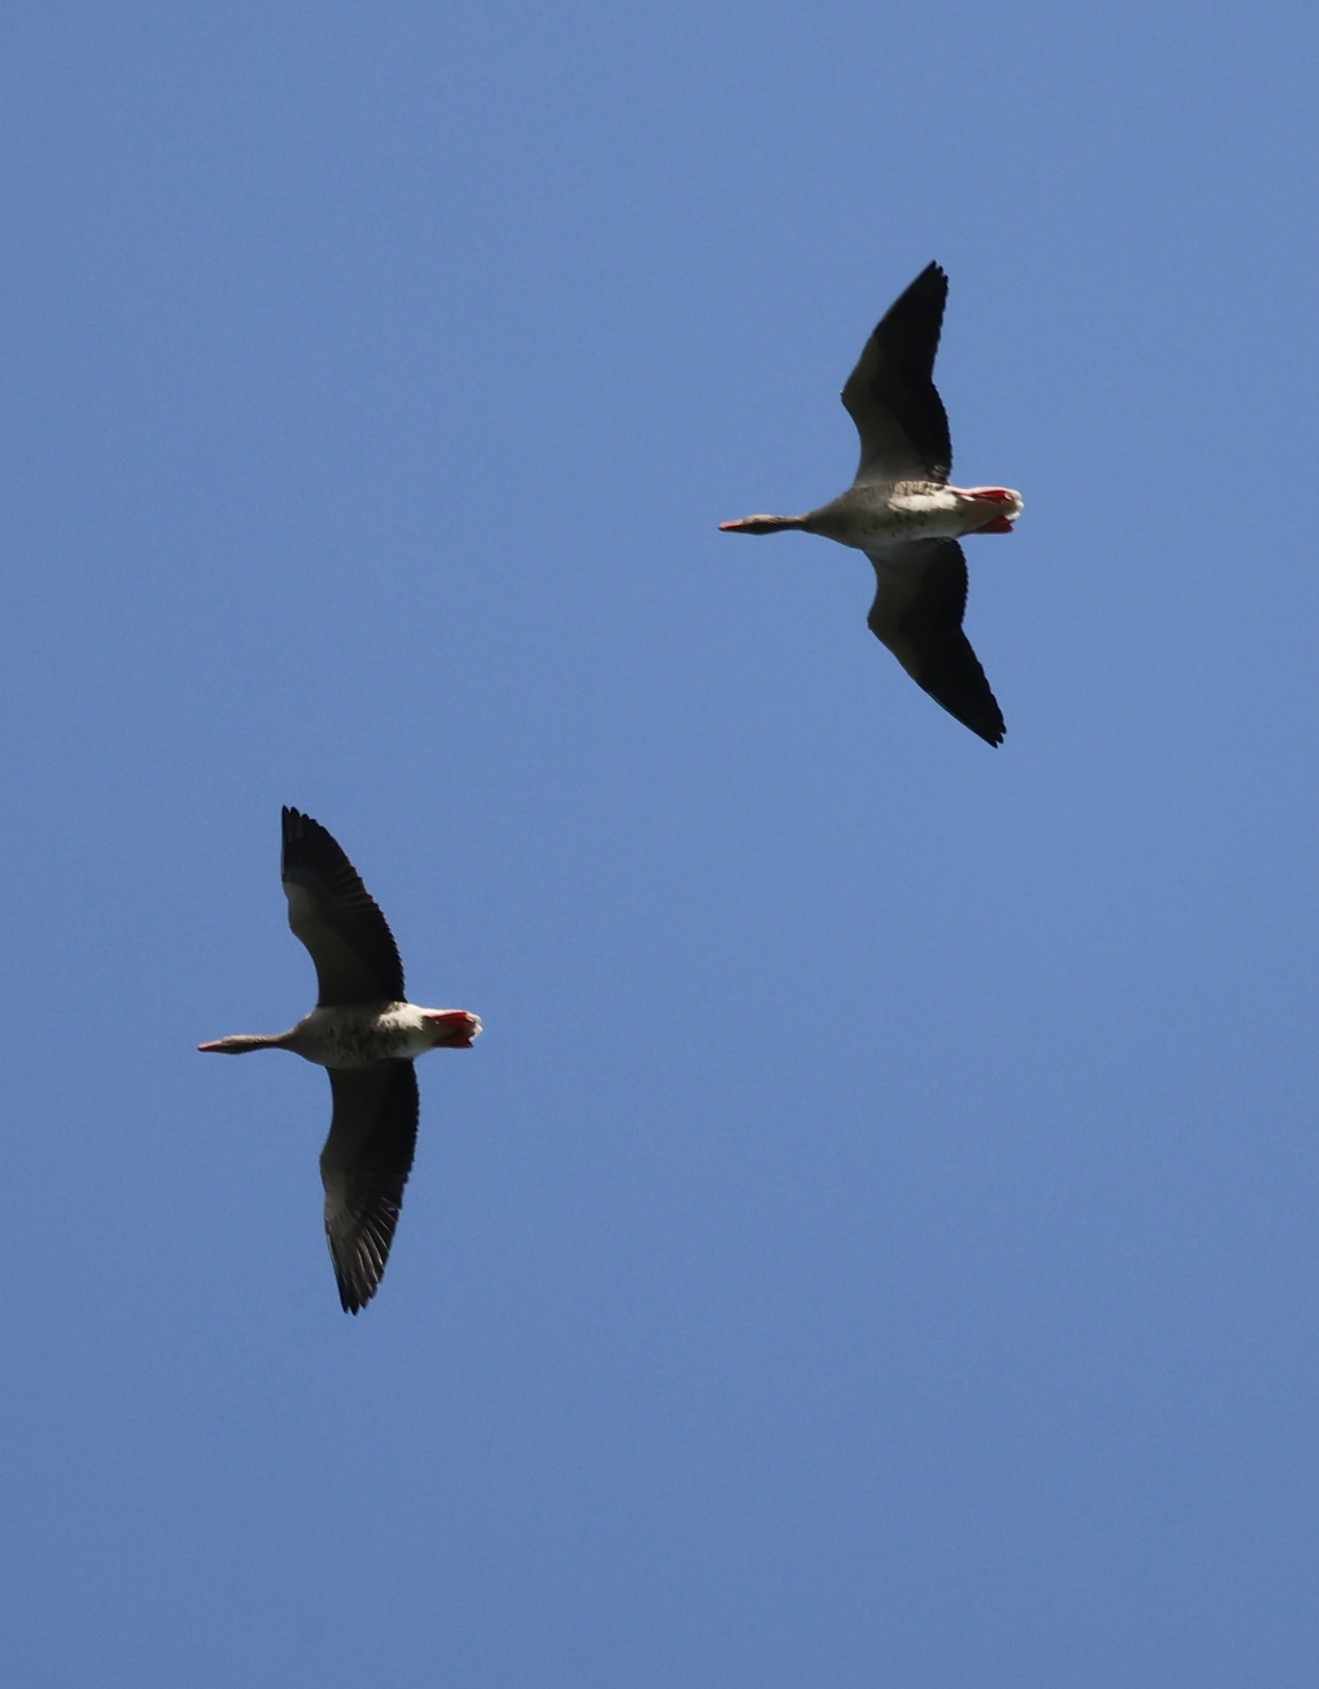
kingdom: Animalia
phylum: Chordata
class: Aves
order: Anseriformes
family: Anatidae
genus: Anser
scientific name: Anser anser
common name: Grågås
